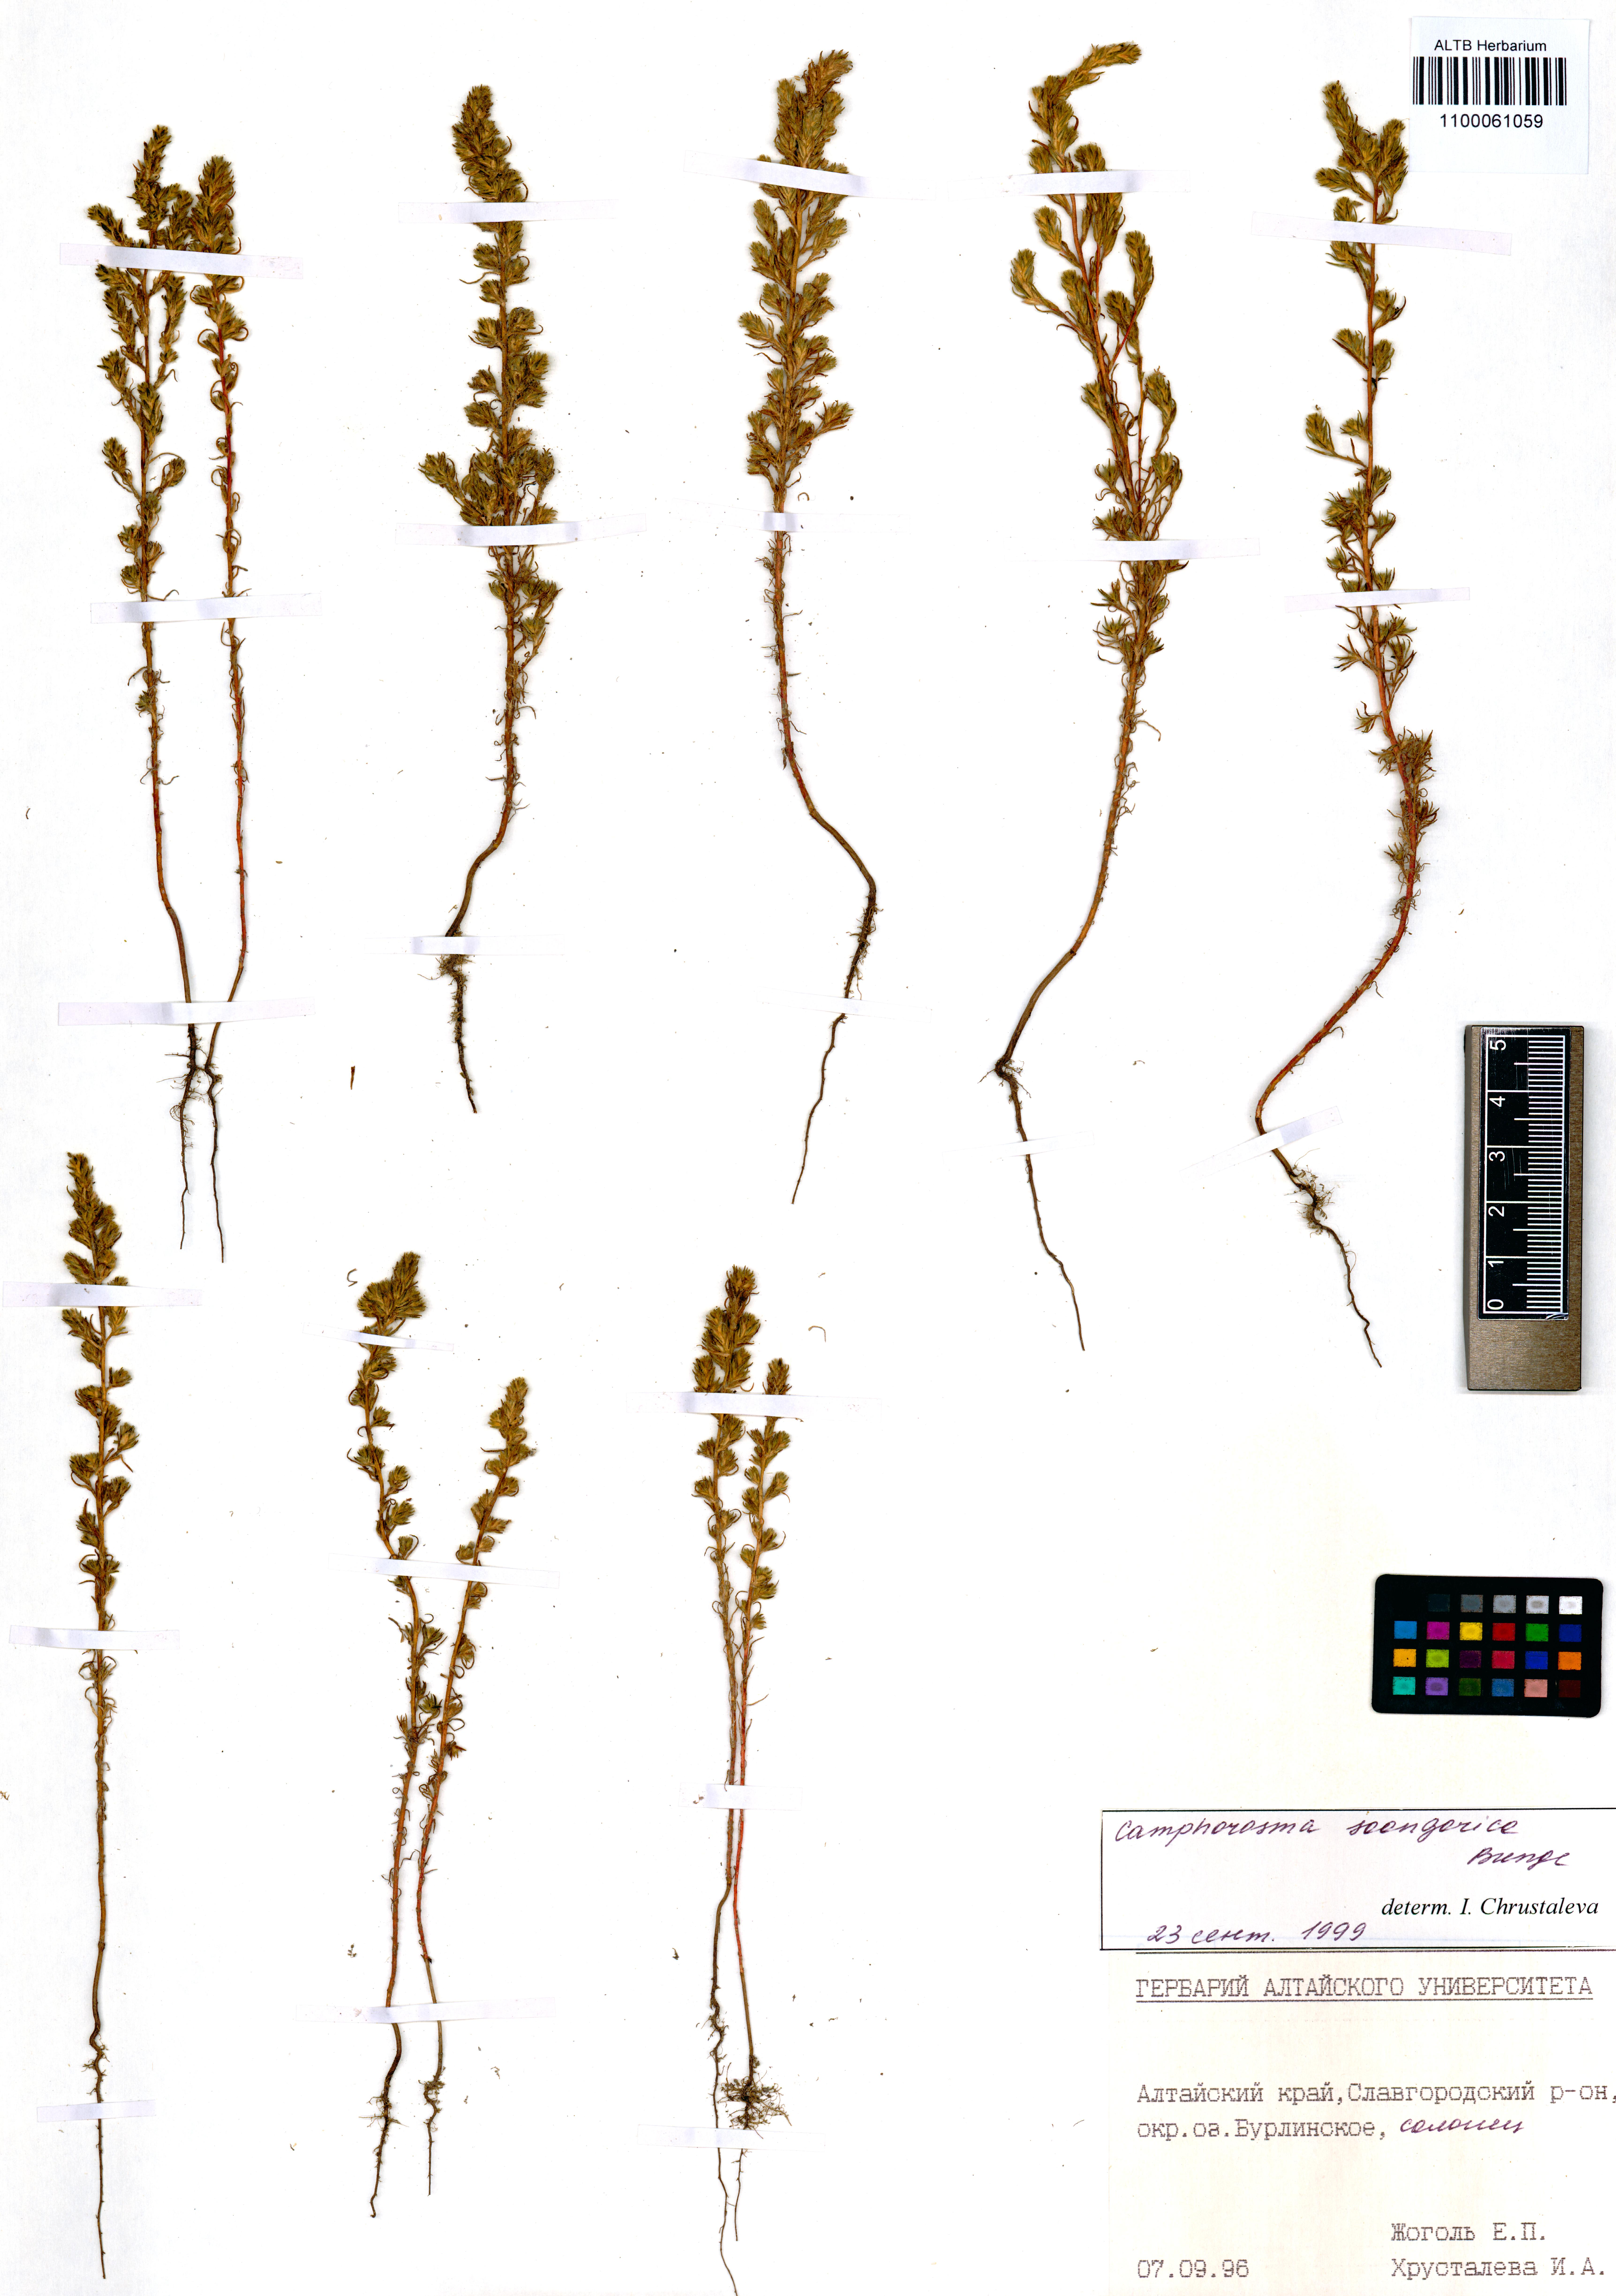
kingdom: Plantae
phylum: Tracheophyta
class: Magnoliopsida
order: Caryophyllales
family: Amaranthaceae
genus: Camphorosma
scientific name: Camphorosma songorica
